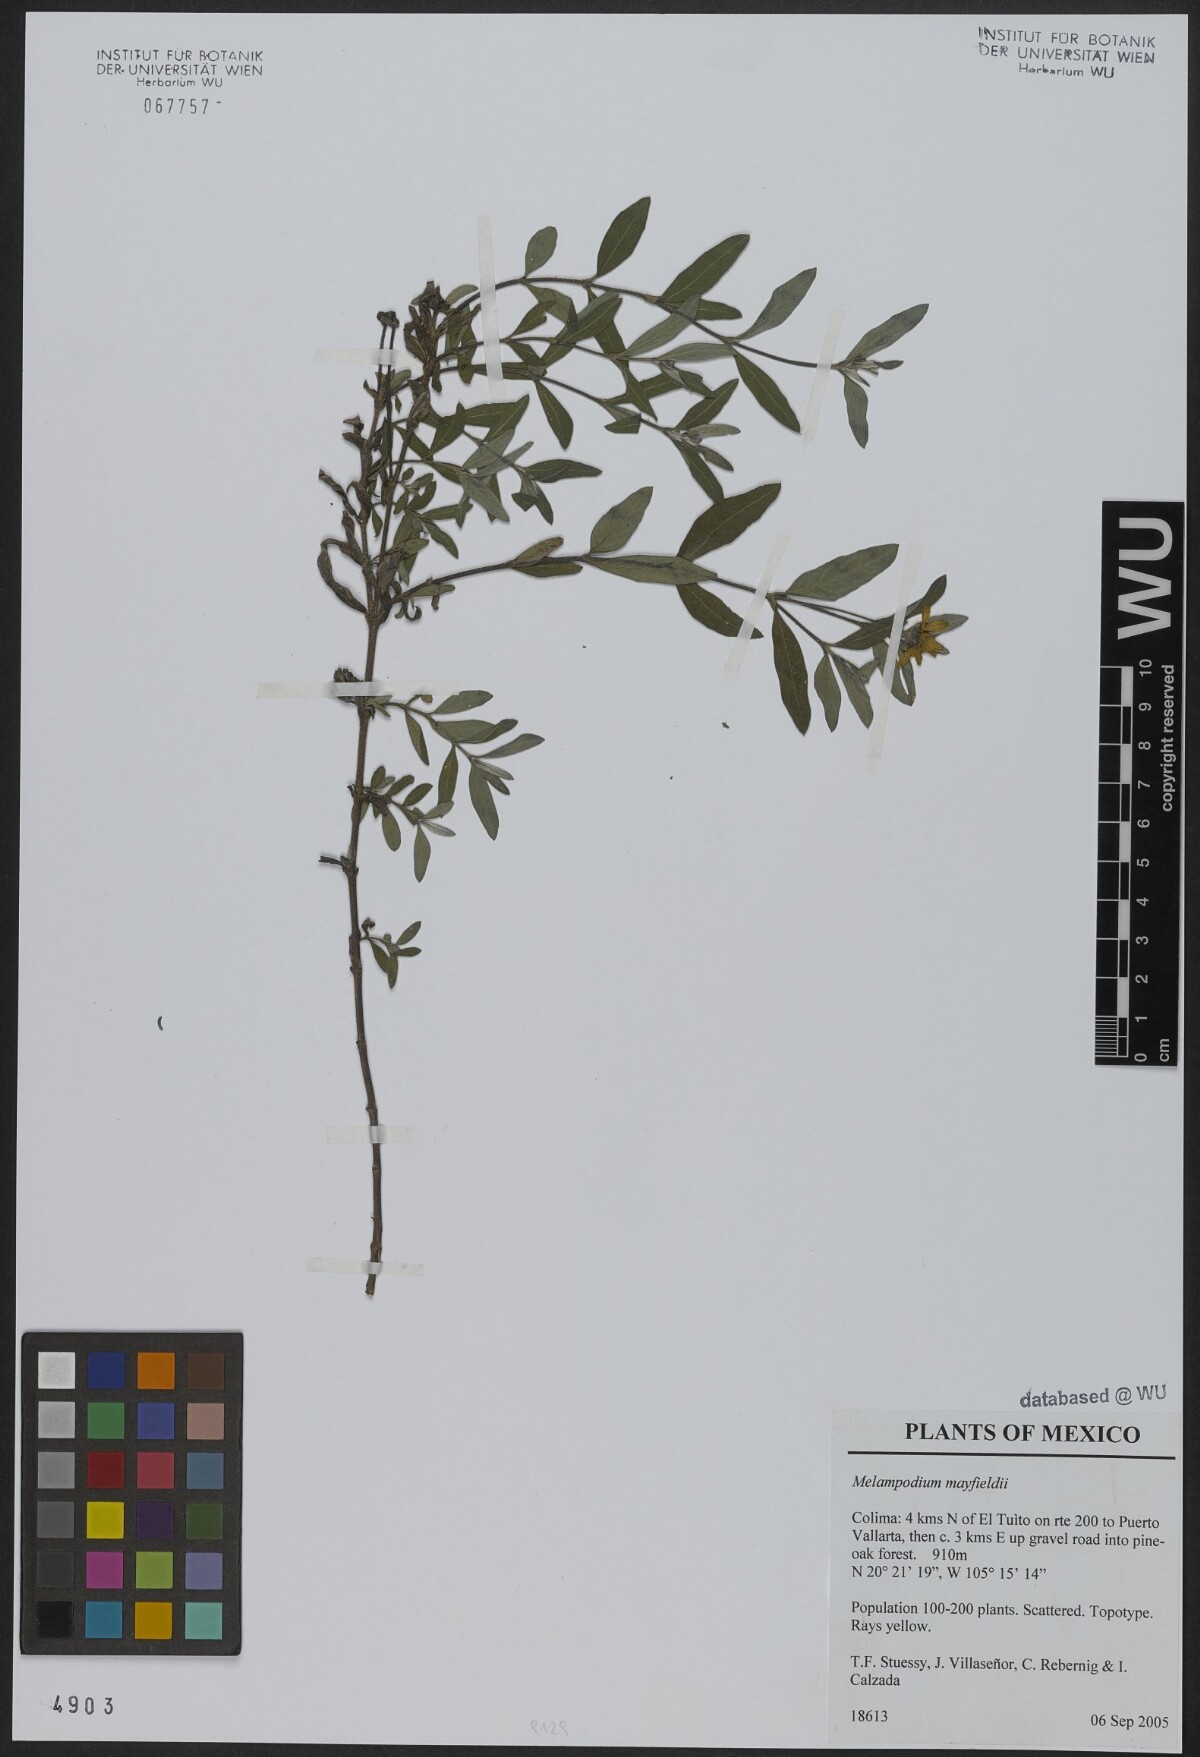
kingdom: Plantae
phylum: Tracheophyta
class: Magnoliopsida
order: Asterales
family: Asteraceae
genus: Melampodium
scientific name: Melampodium mayfieldii
